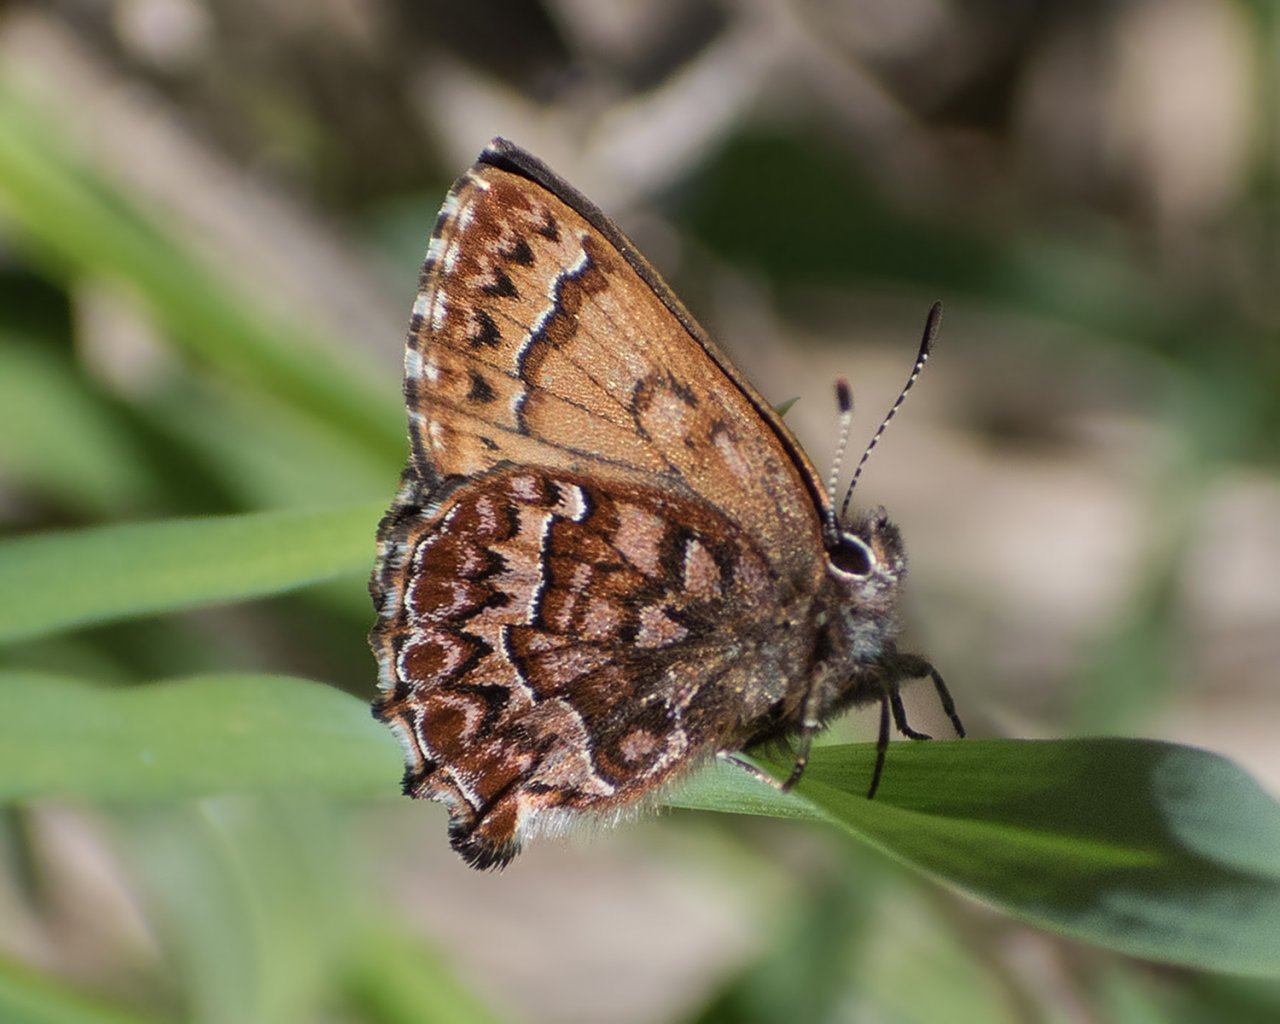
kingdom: Animalia
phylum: Arthropoda
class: Insecta
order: Lepidoptera
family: Lycaenidae
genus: Incisalia
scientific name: Incisalia eryphon
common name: Western Pine Elfin
